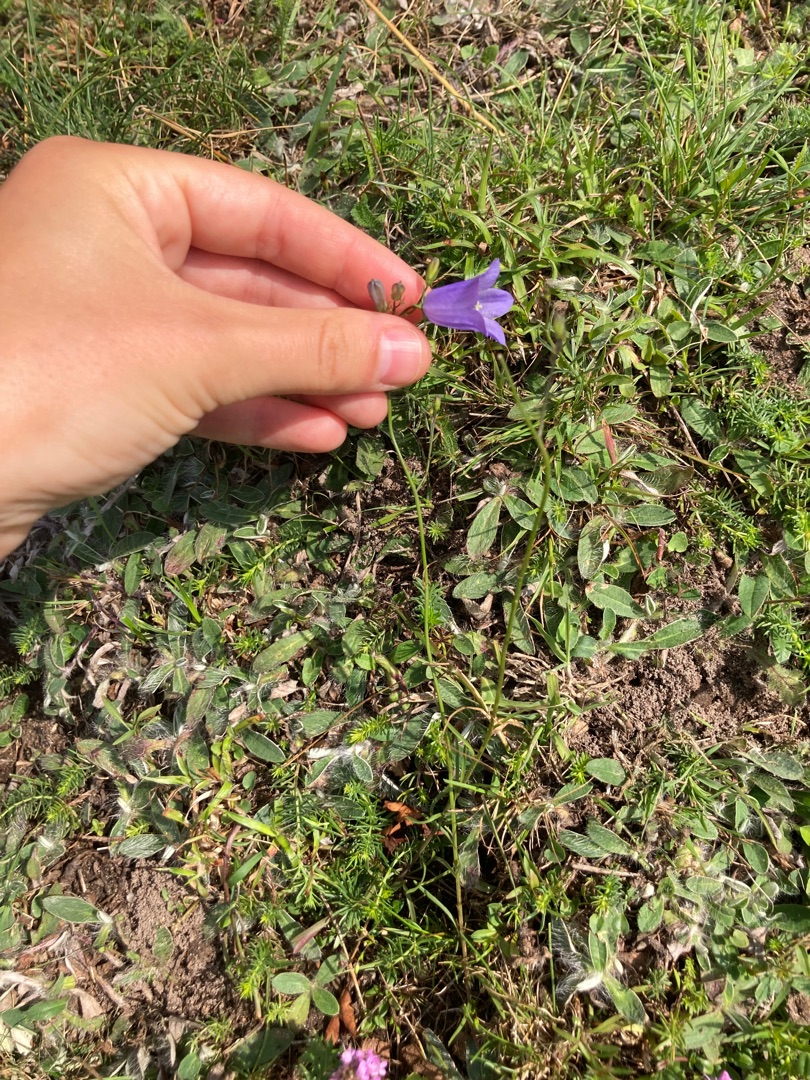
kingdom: Plantae
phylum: Tracheophyta
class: Magnoliopsida
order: Asterales
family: Campanulaceae
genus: Campanula
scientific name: Campanula rotundifolia
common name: Liden klokke
